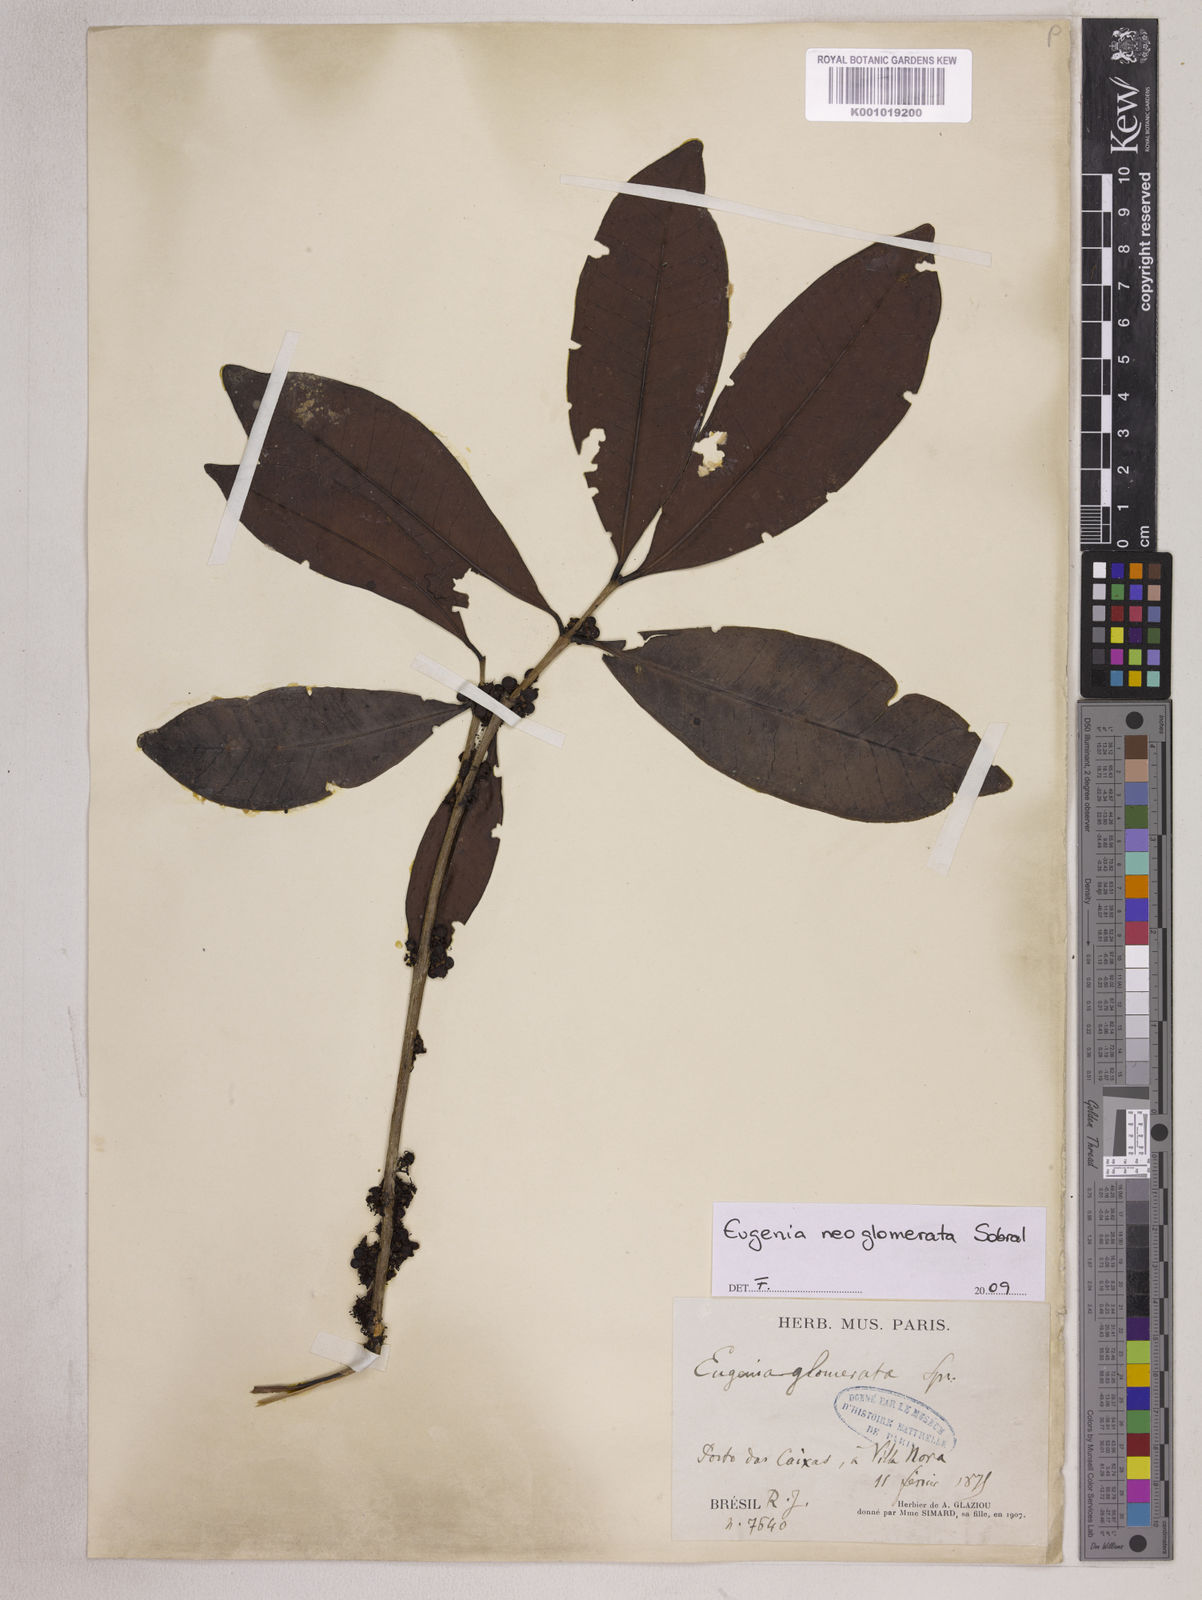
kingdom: Plantae
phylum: Tracheophyta
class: Magnoliopsida
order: Myrtales
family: Myrtaceae
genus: Eugenia
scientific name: Eugenia neoglomerata
